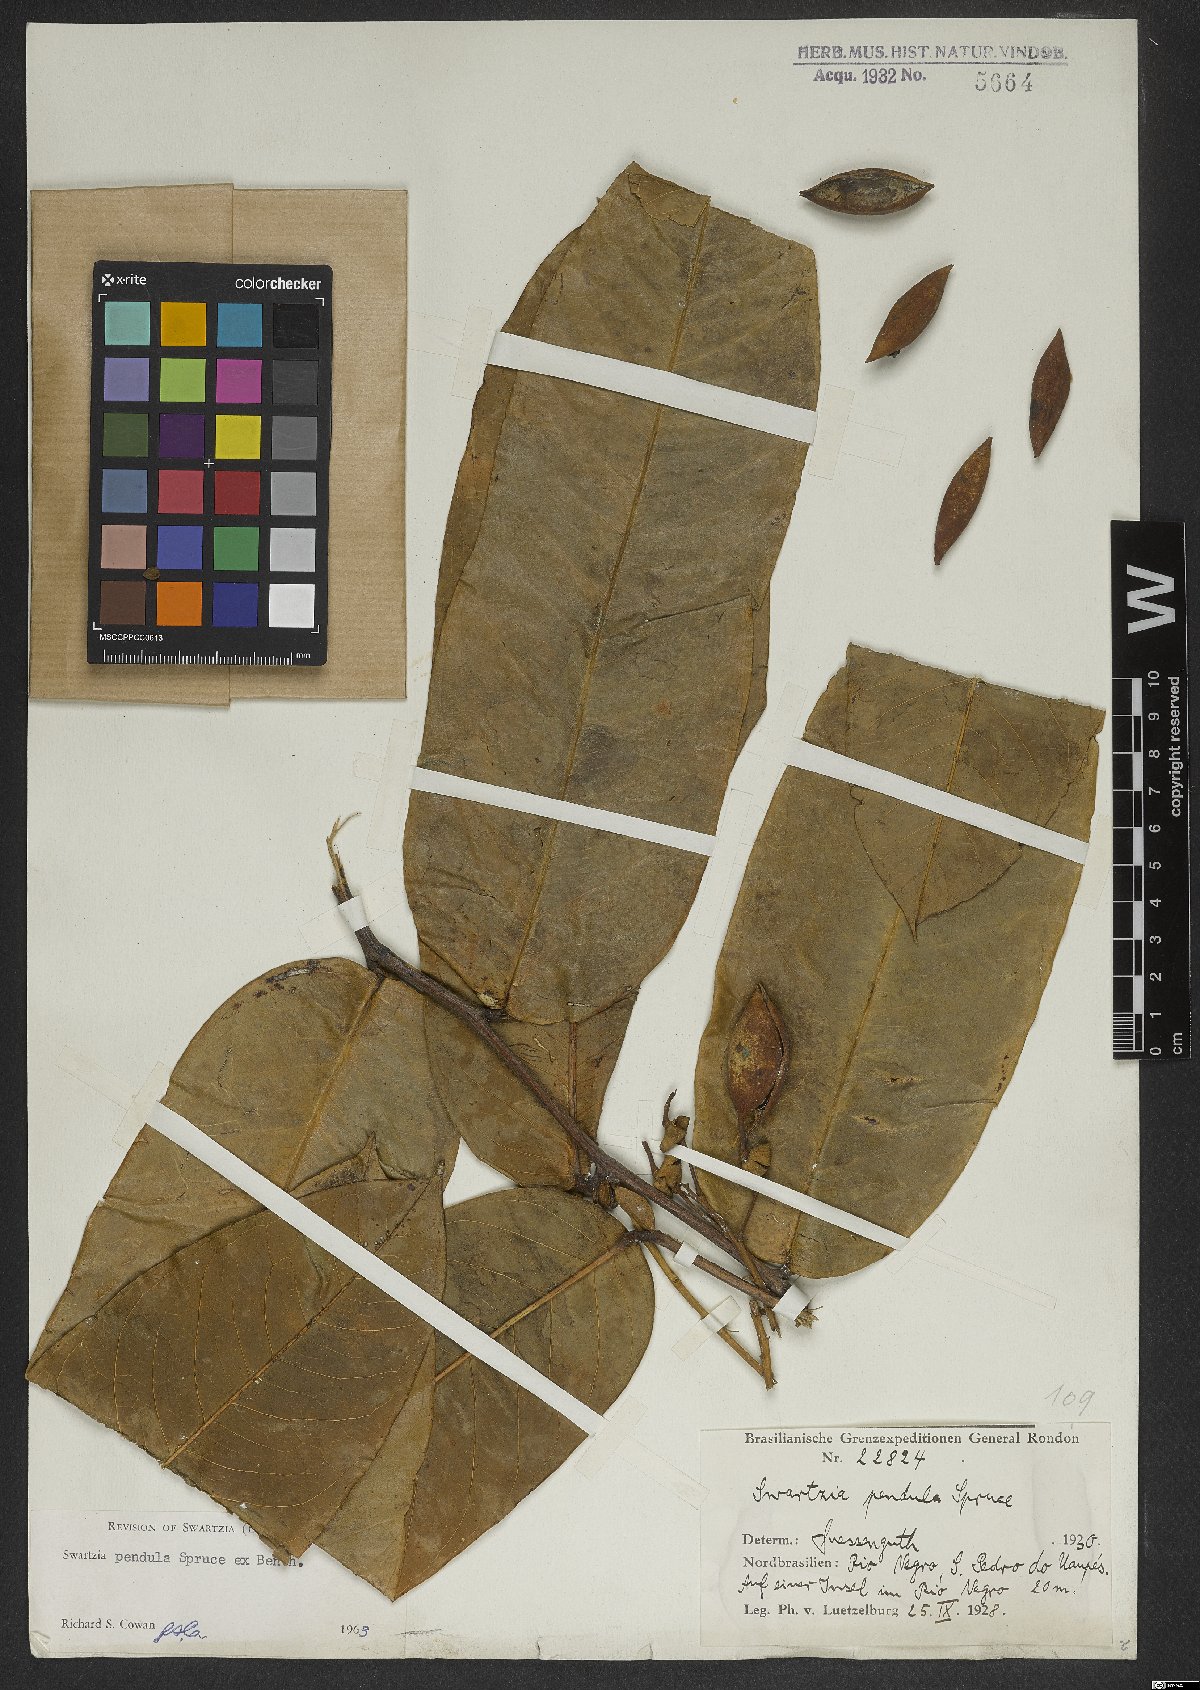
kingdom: Plantae
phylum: Tracheophyta
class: Magnoliopsida
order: Fabales
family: Fabaceae
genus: Swartzia
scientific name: Swartzia pendula
